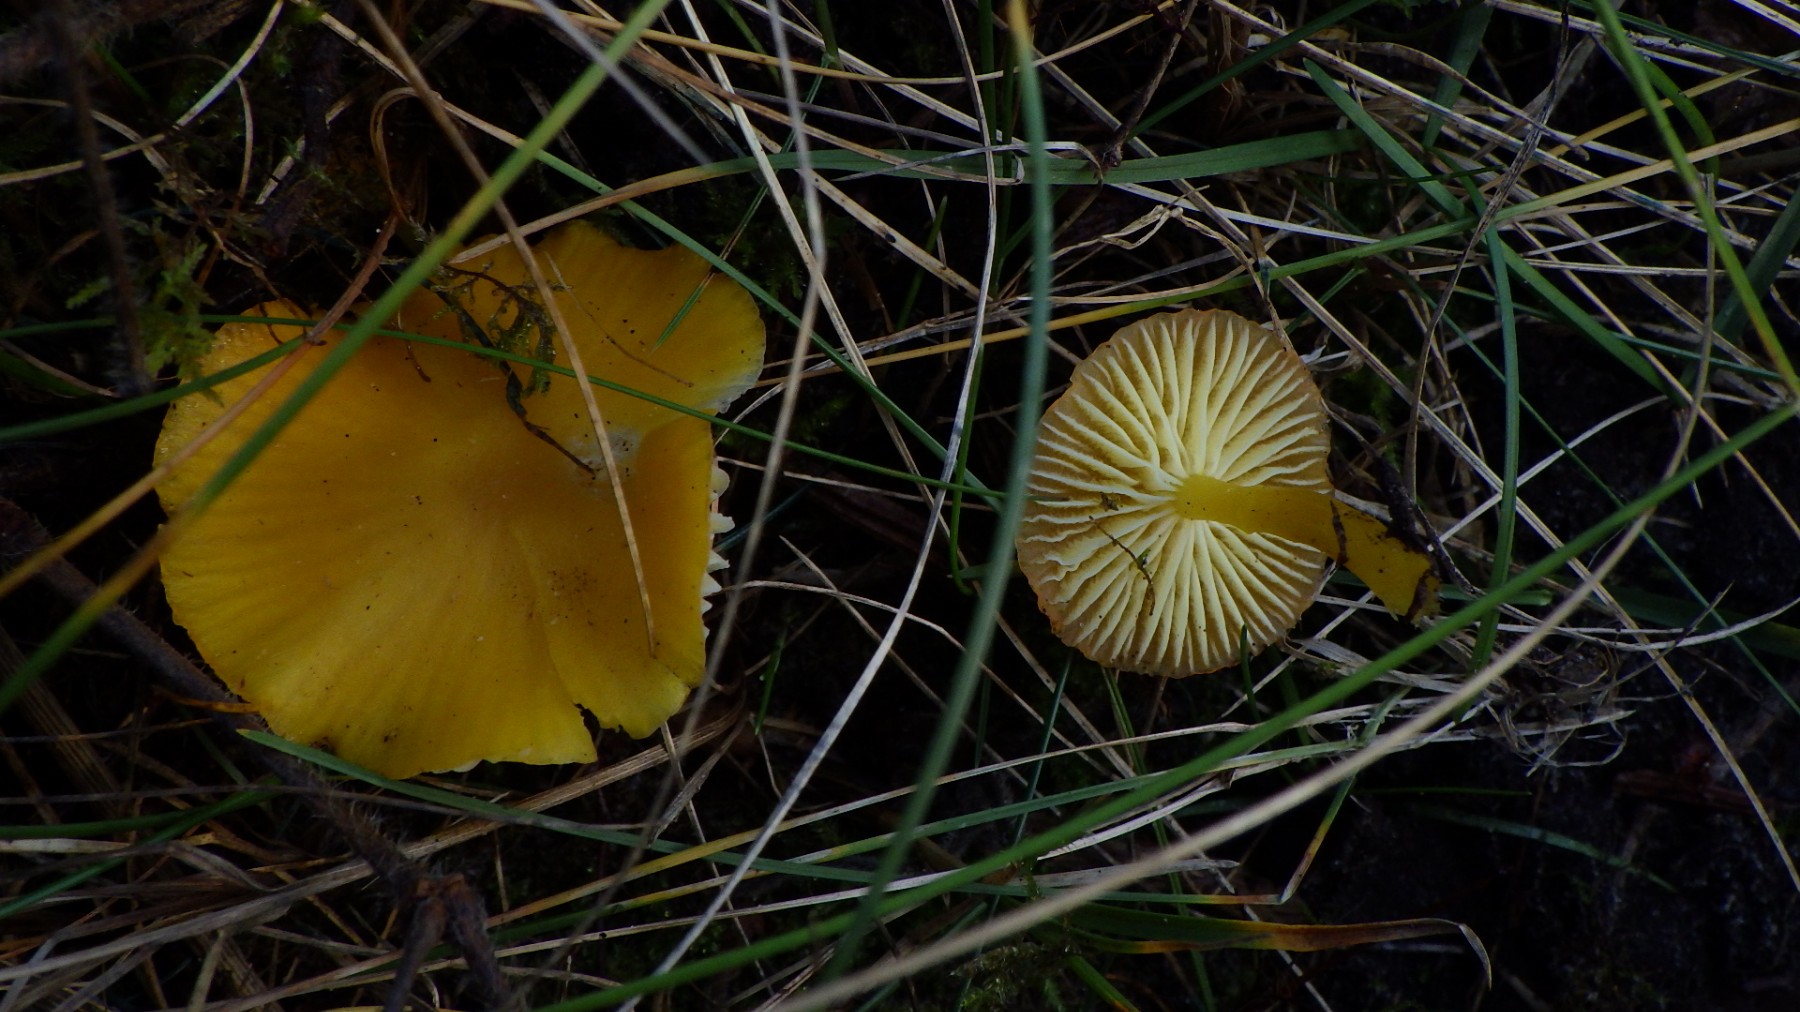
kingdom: Fungi
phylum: Basidiomycota
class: Agaricomycetes
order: Agaricales
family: Hygrophoraceae
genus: Hygrocybe
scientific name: Hygrocybe ceracea
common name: voksgul vokshat
